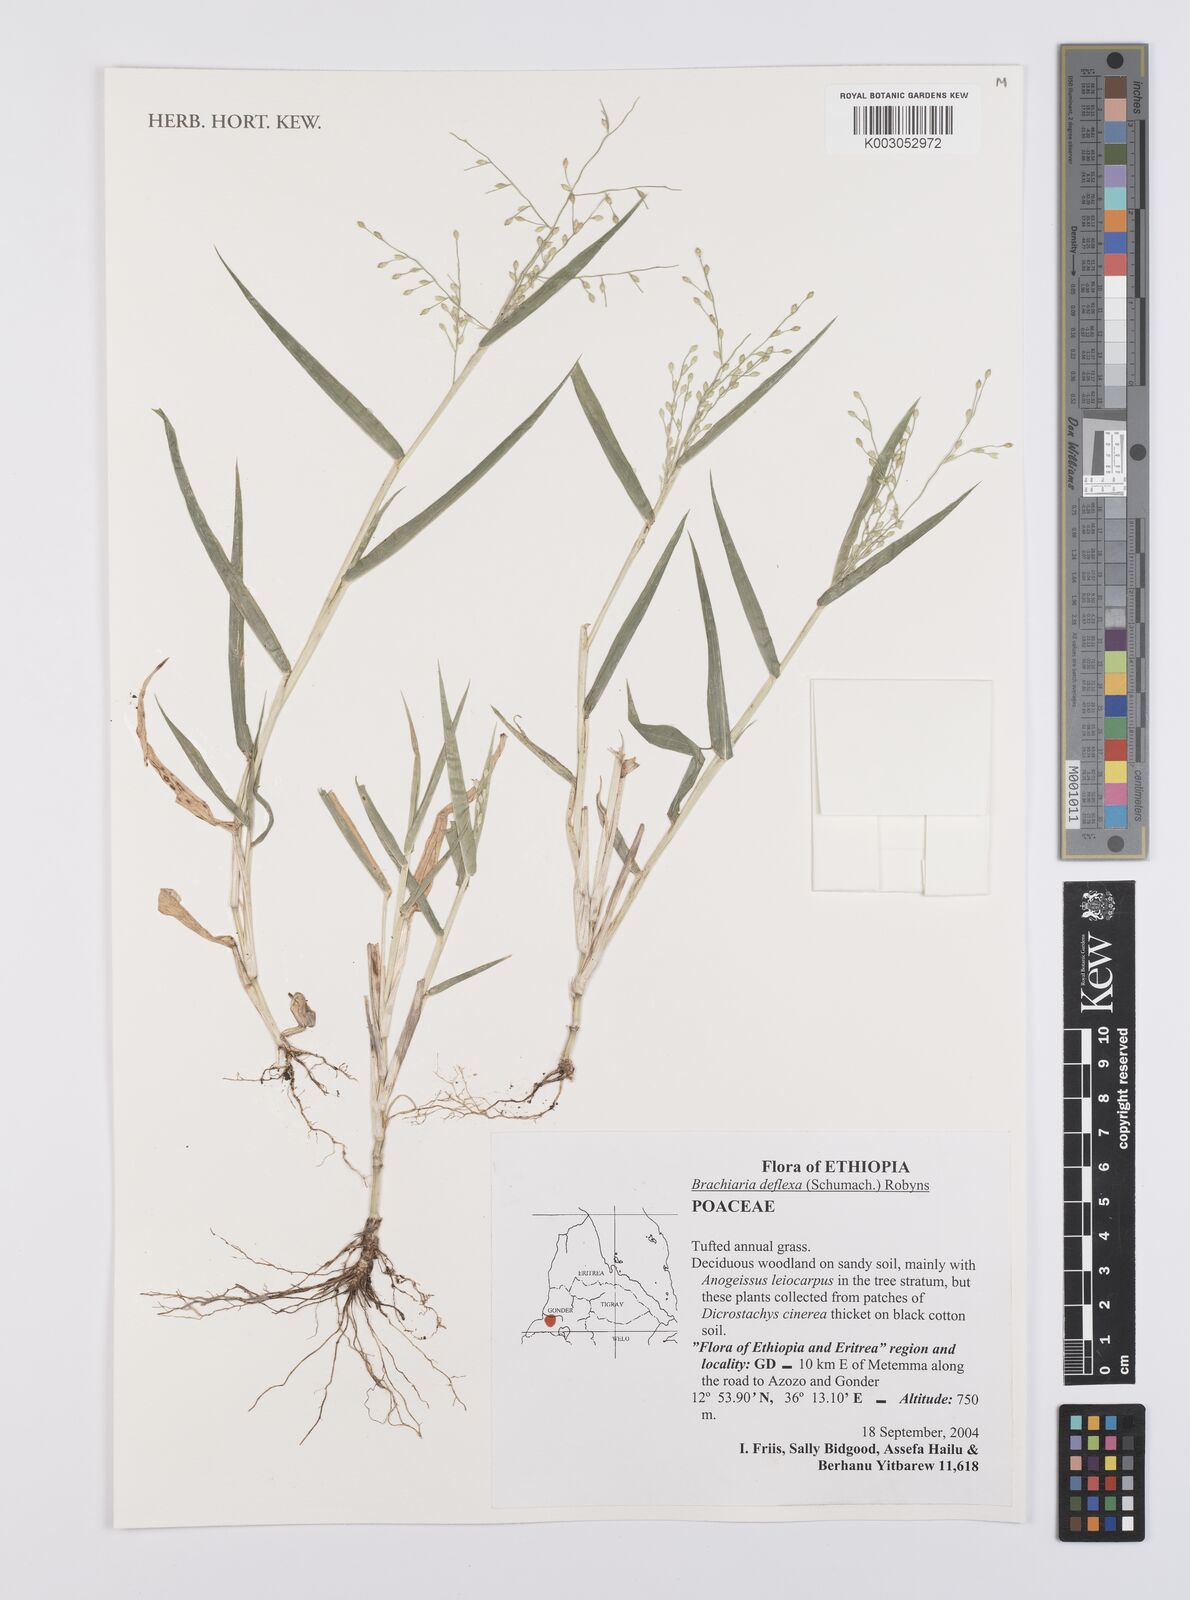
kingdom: Plantae
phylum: Tracheophyta
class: Liliopsida
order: Poales
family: Poaceae
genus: Urochloa
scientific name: Urochloa deflexa
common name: Guinea millet
